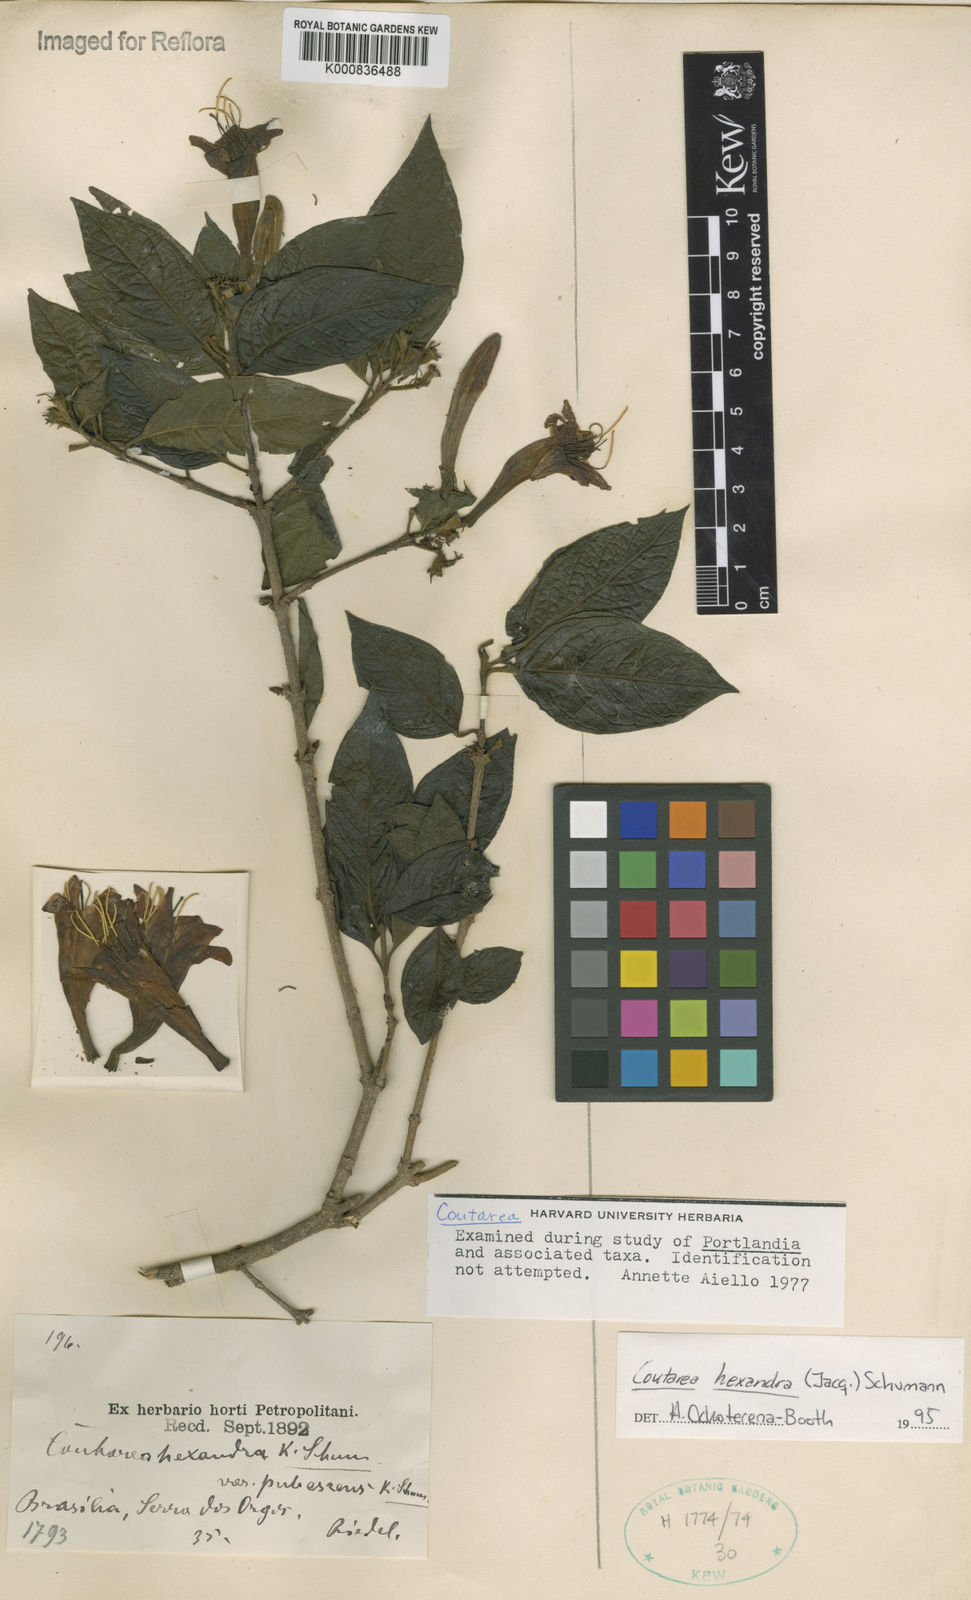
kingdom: Plantae
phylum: Tracheophyta
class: Magnoliopsida
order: Gentianales
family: Rubiaceae
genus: Coutarea
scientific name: Coutarea hexandra
